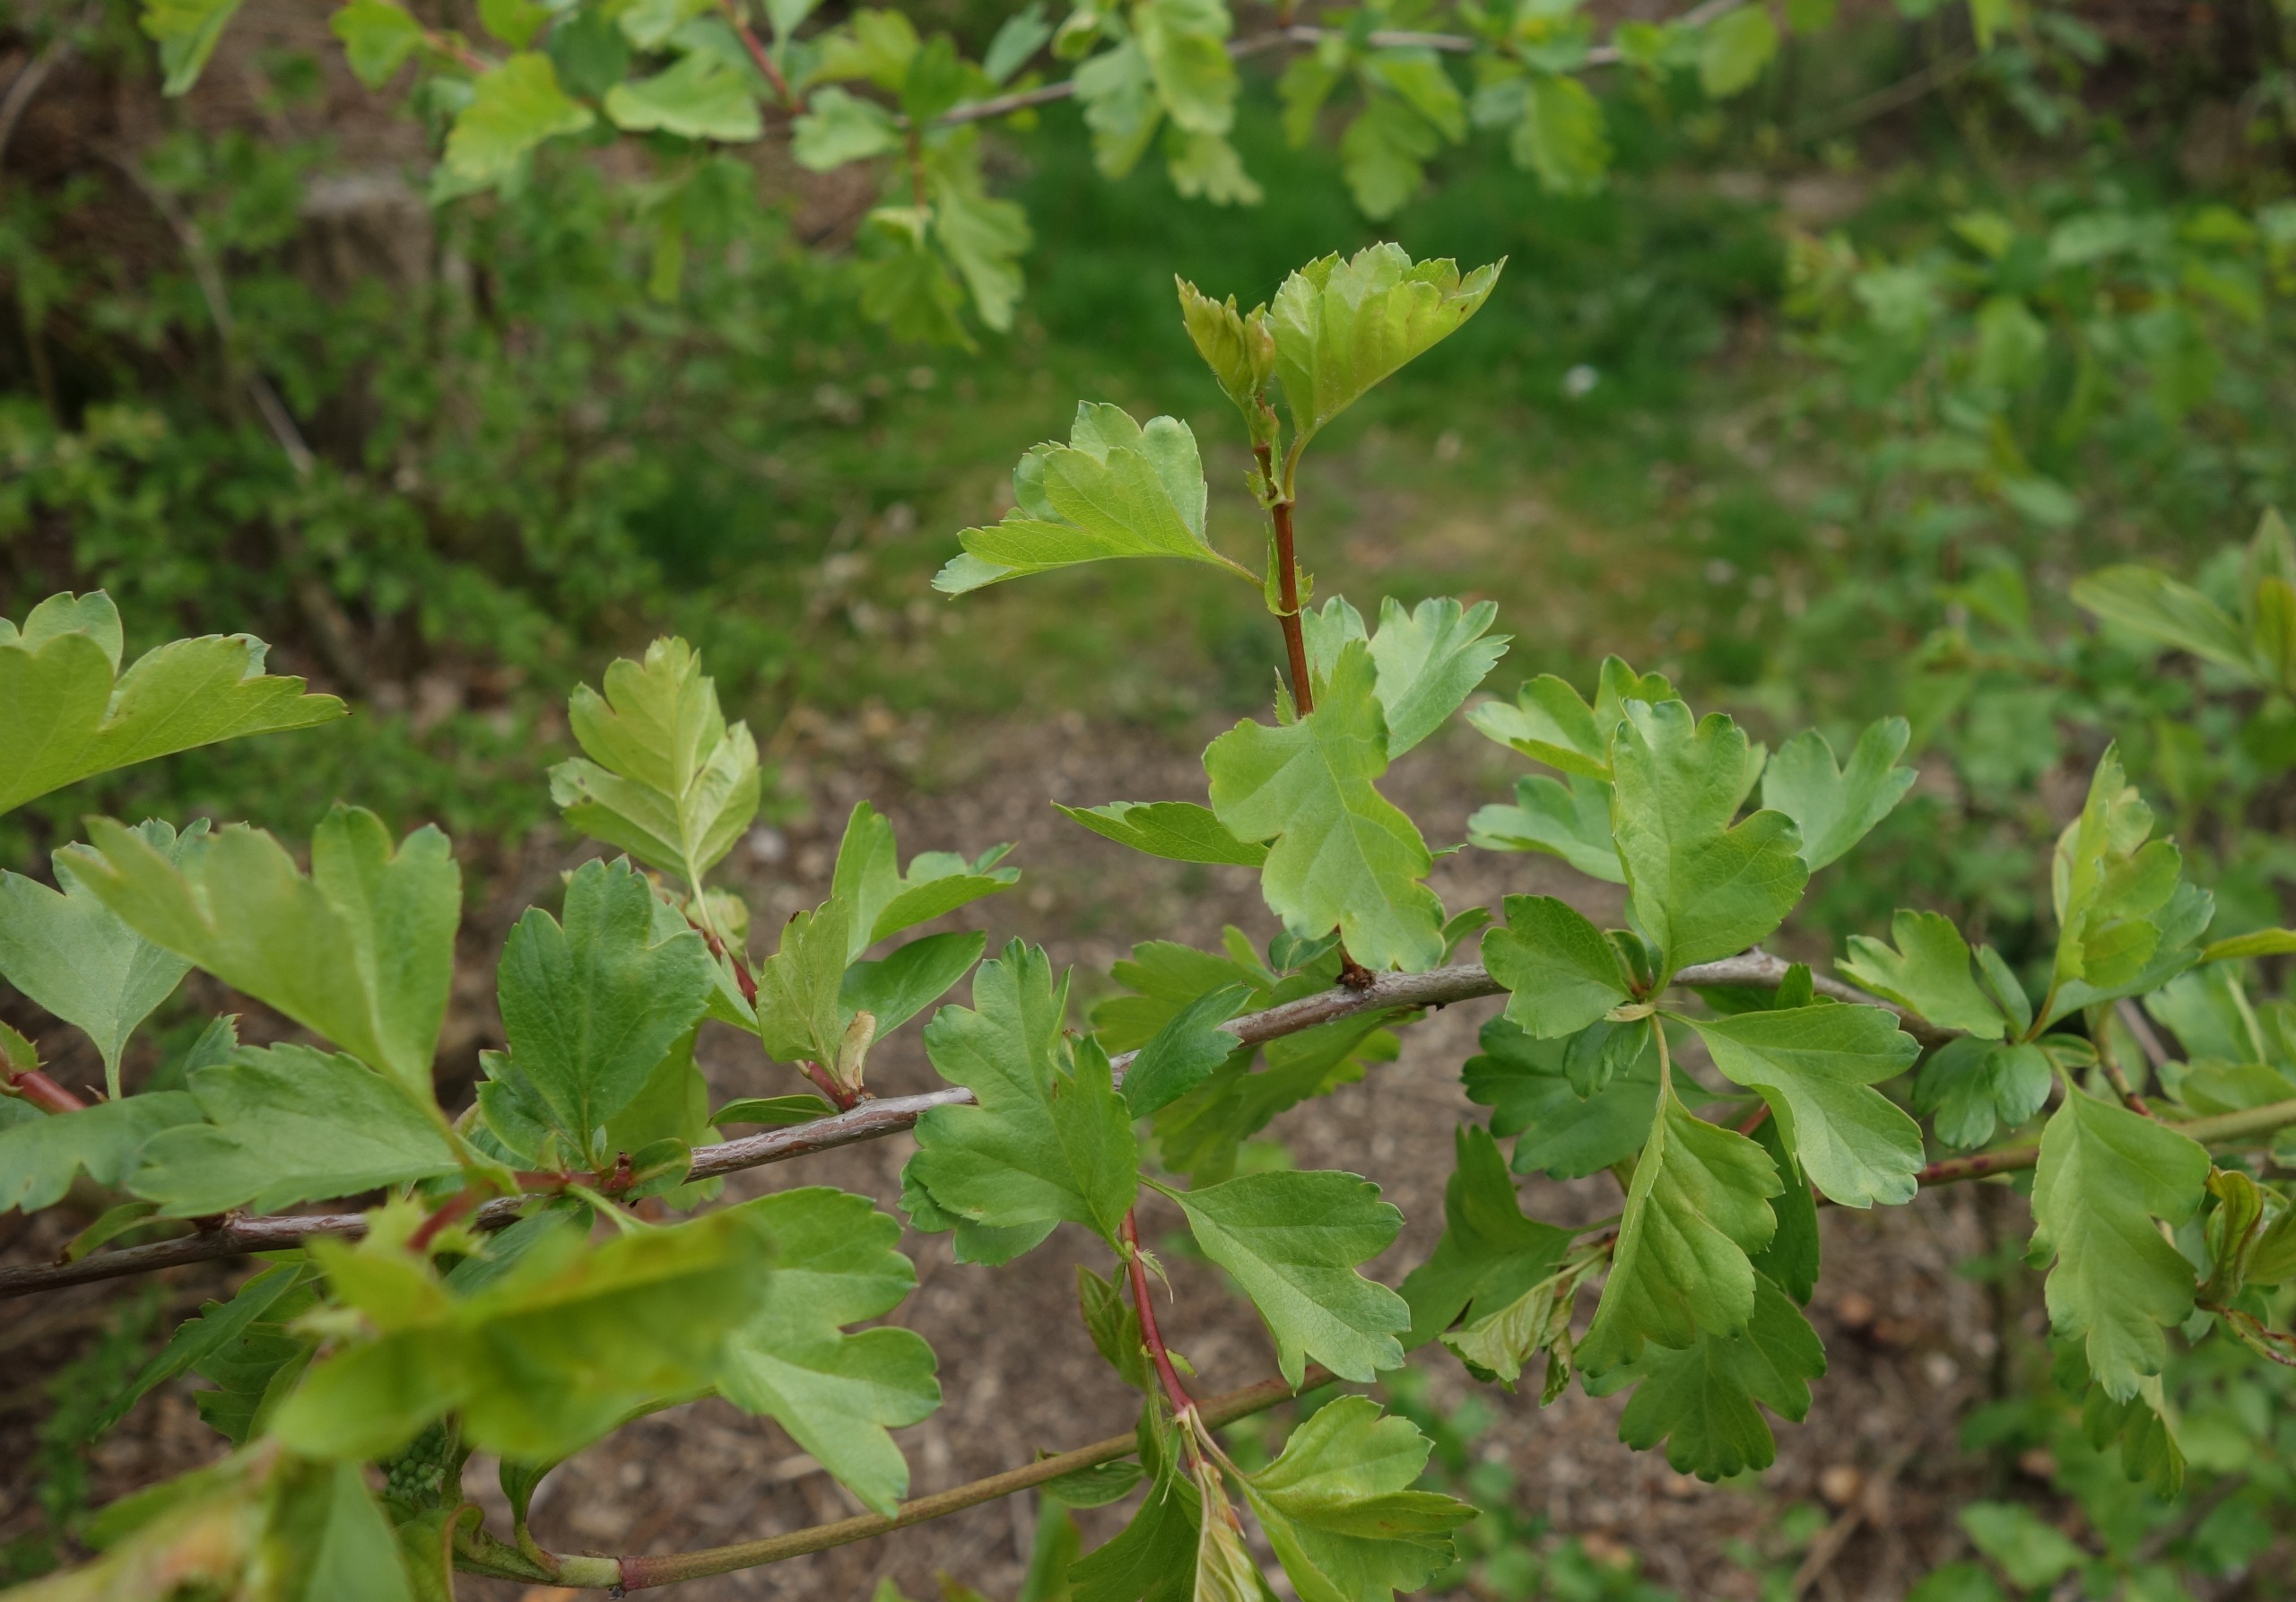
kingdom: Plantae
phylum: Tracheophyta
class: Magnoliopsida
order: Rosales
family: Rosaceae
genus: Crataegus
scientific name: Crataegus monogyna
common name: Engriflet hvidtjørn
